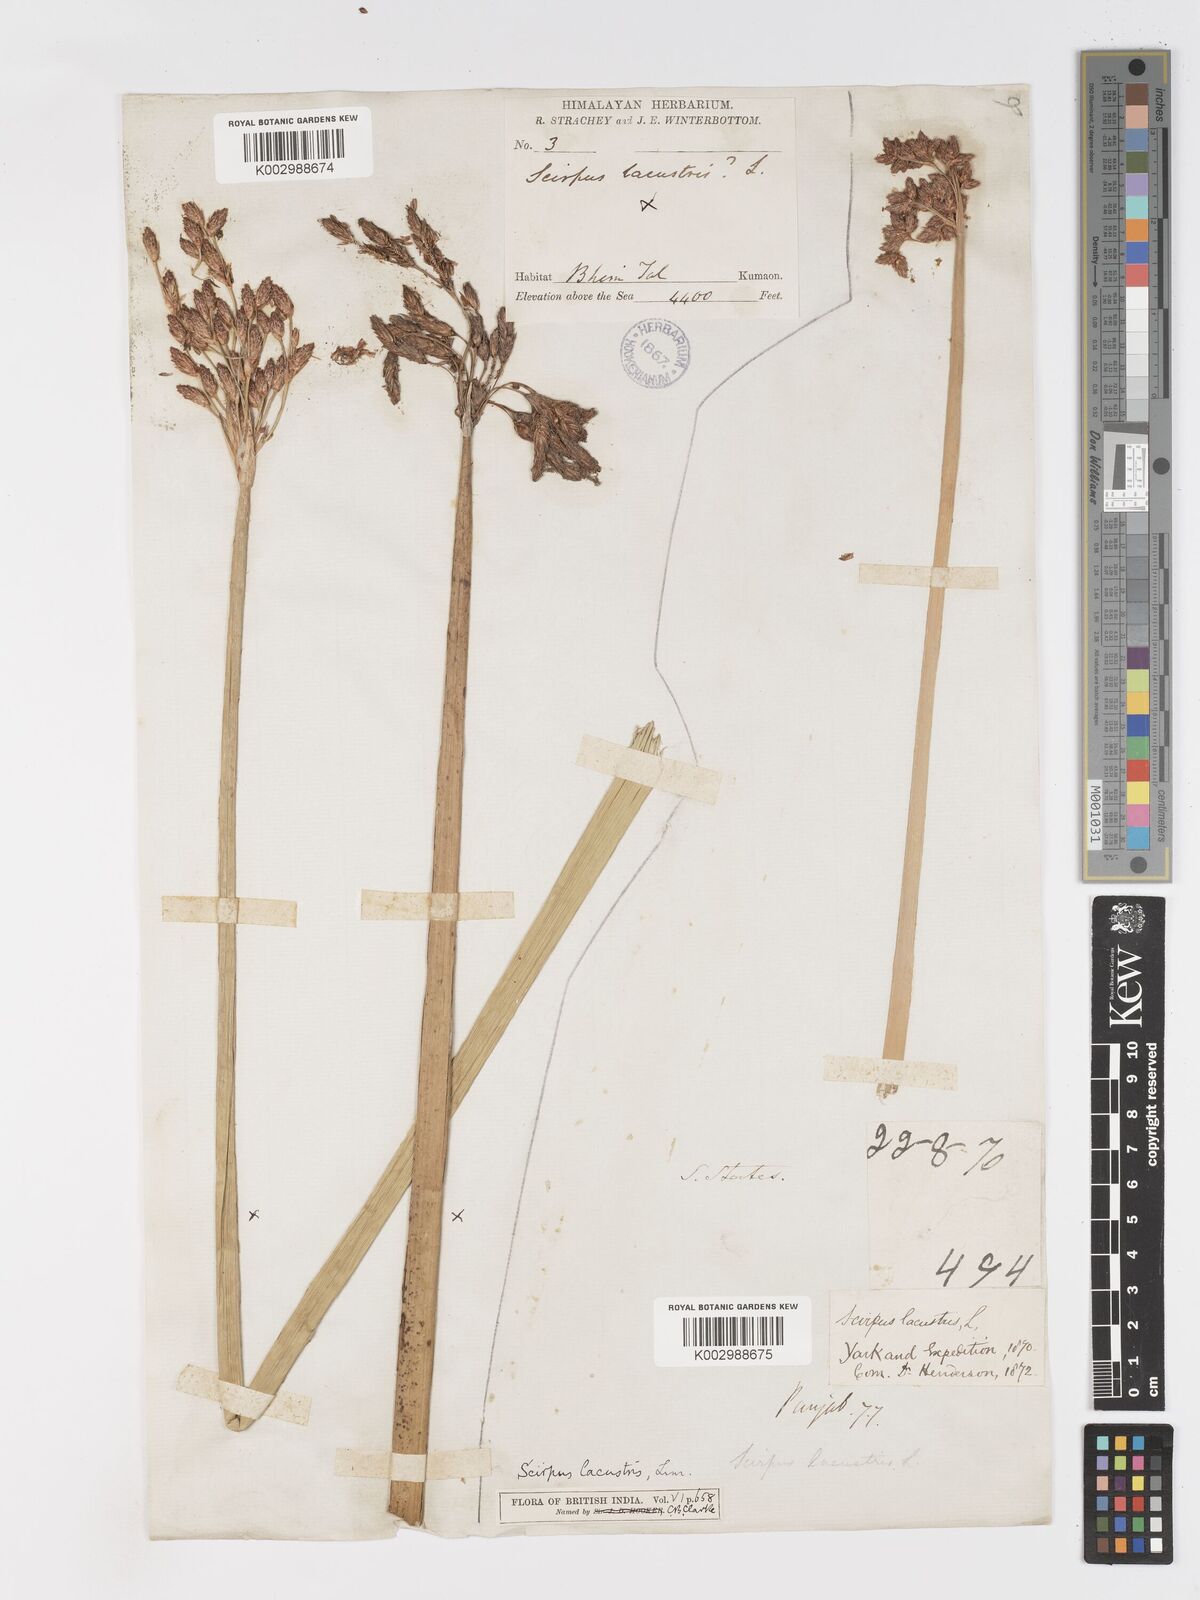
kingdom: Plantae
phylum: Tracheophyta
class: Liliopsida
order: Poales
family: Cyperaceae
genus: Schoenoplectus
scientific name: Schoenoplectus lacustris
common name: Common club-rush
